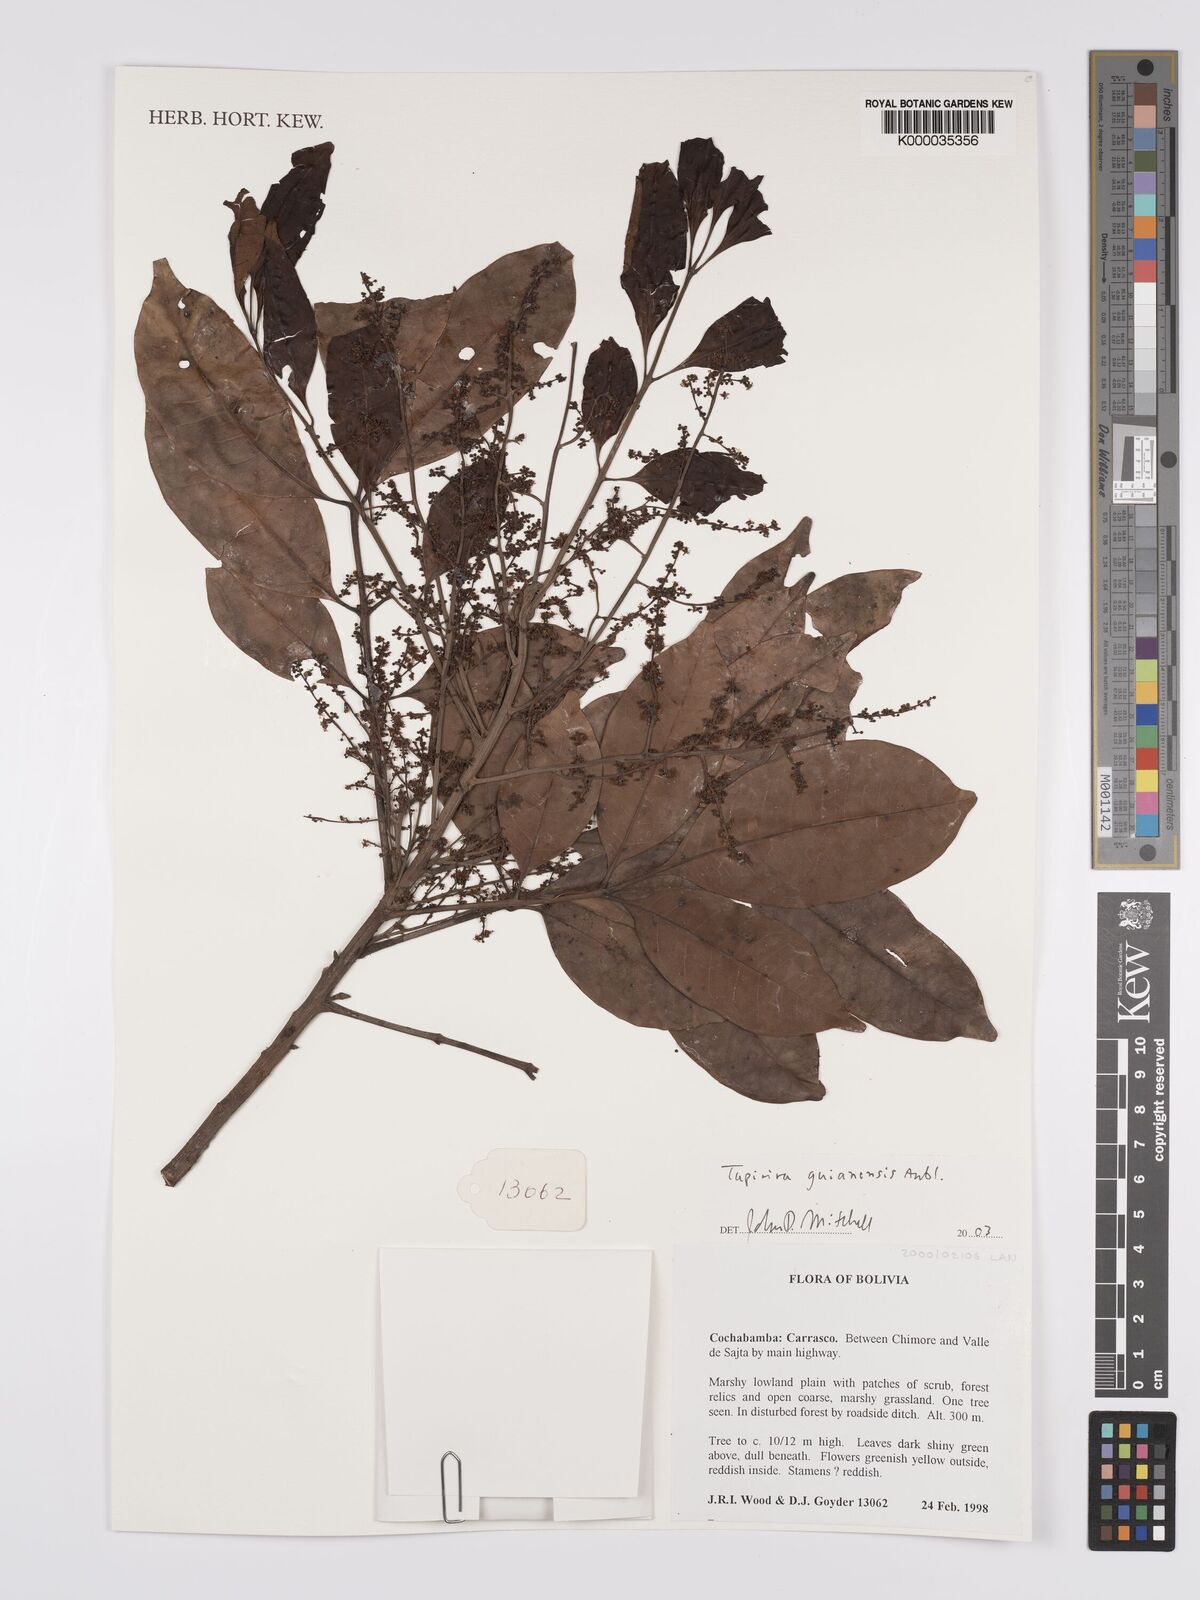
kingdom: Plantae
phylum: Tracheophyta
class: Magnoliopsida
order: Sapindales
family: Anacardiaceae
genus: Tapirira
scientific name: Tapirira guianensis
